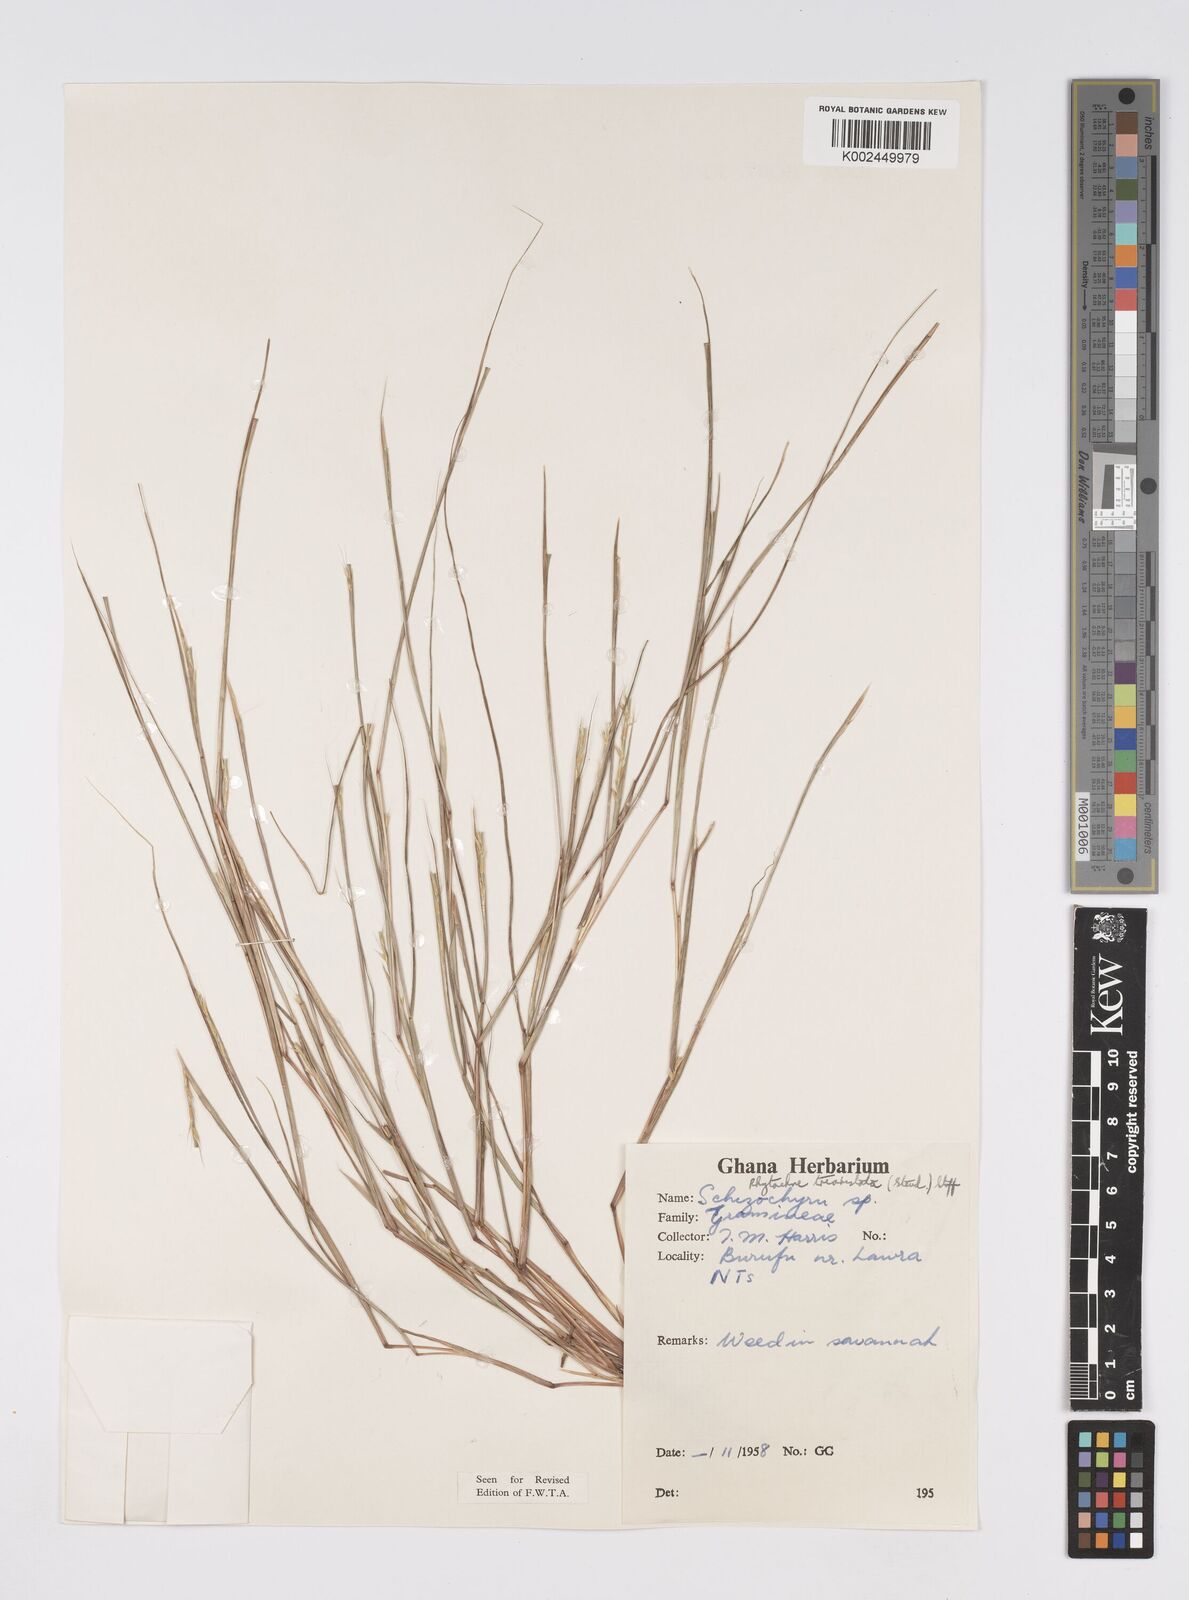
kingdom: Plantae
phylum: Tracheophyta
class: Liliopsida
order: Poales
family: Poaceae
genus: Rhytachne
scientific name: Rhytachne triaristata
